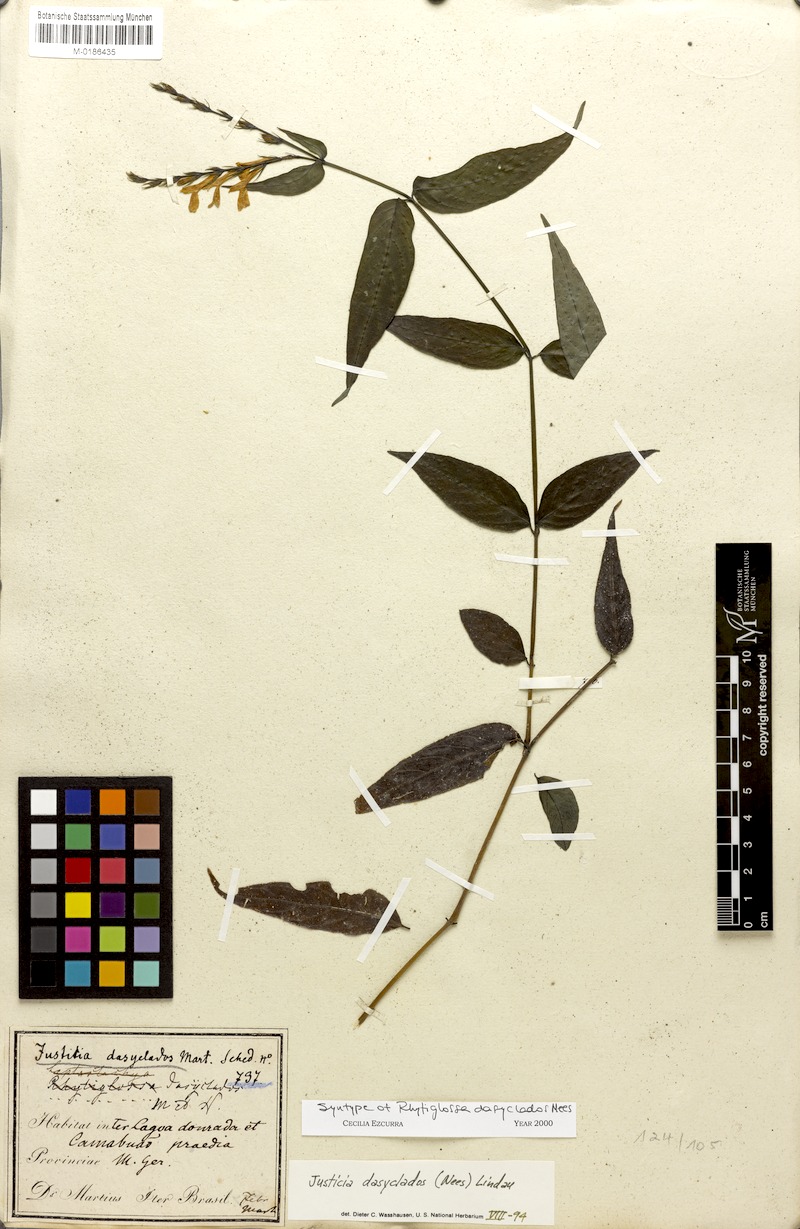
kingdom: Plantae
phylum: Tracheophyta
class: Magnoliopsida
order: Lamiales
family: Acanthaceae
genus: Dianthera
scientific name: Dianthera dasyclados
